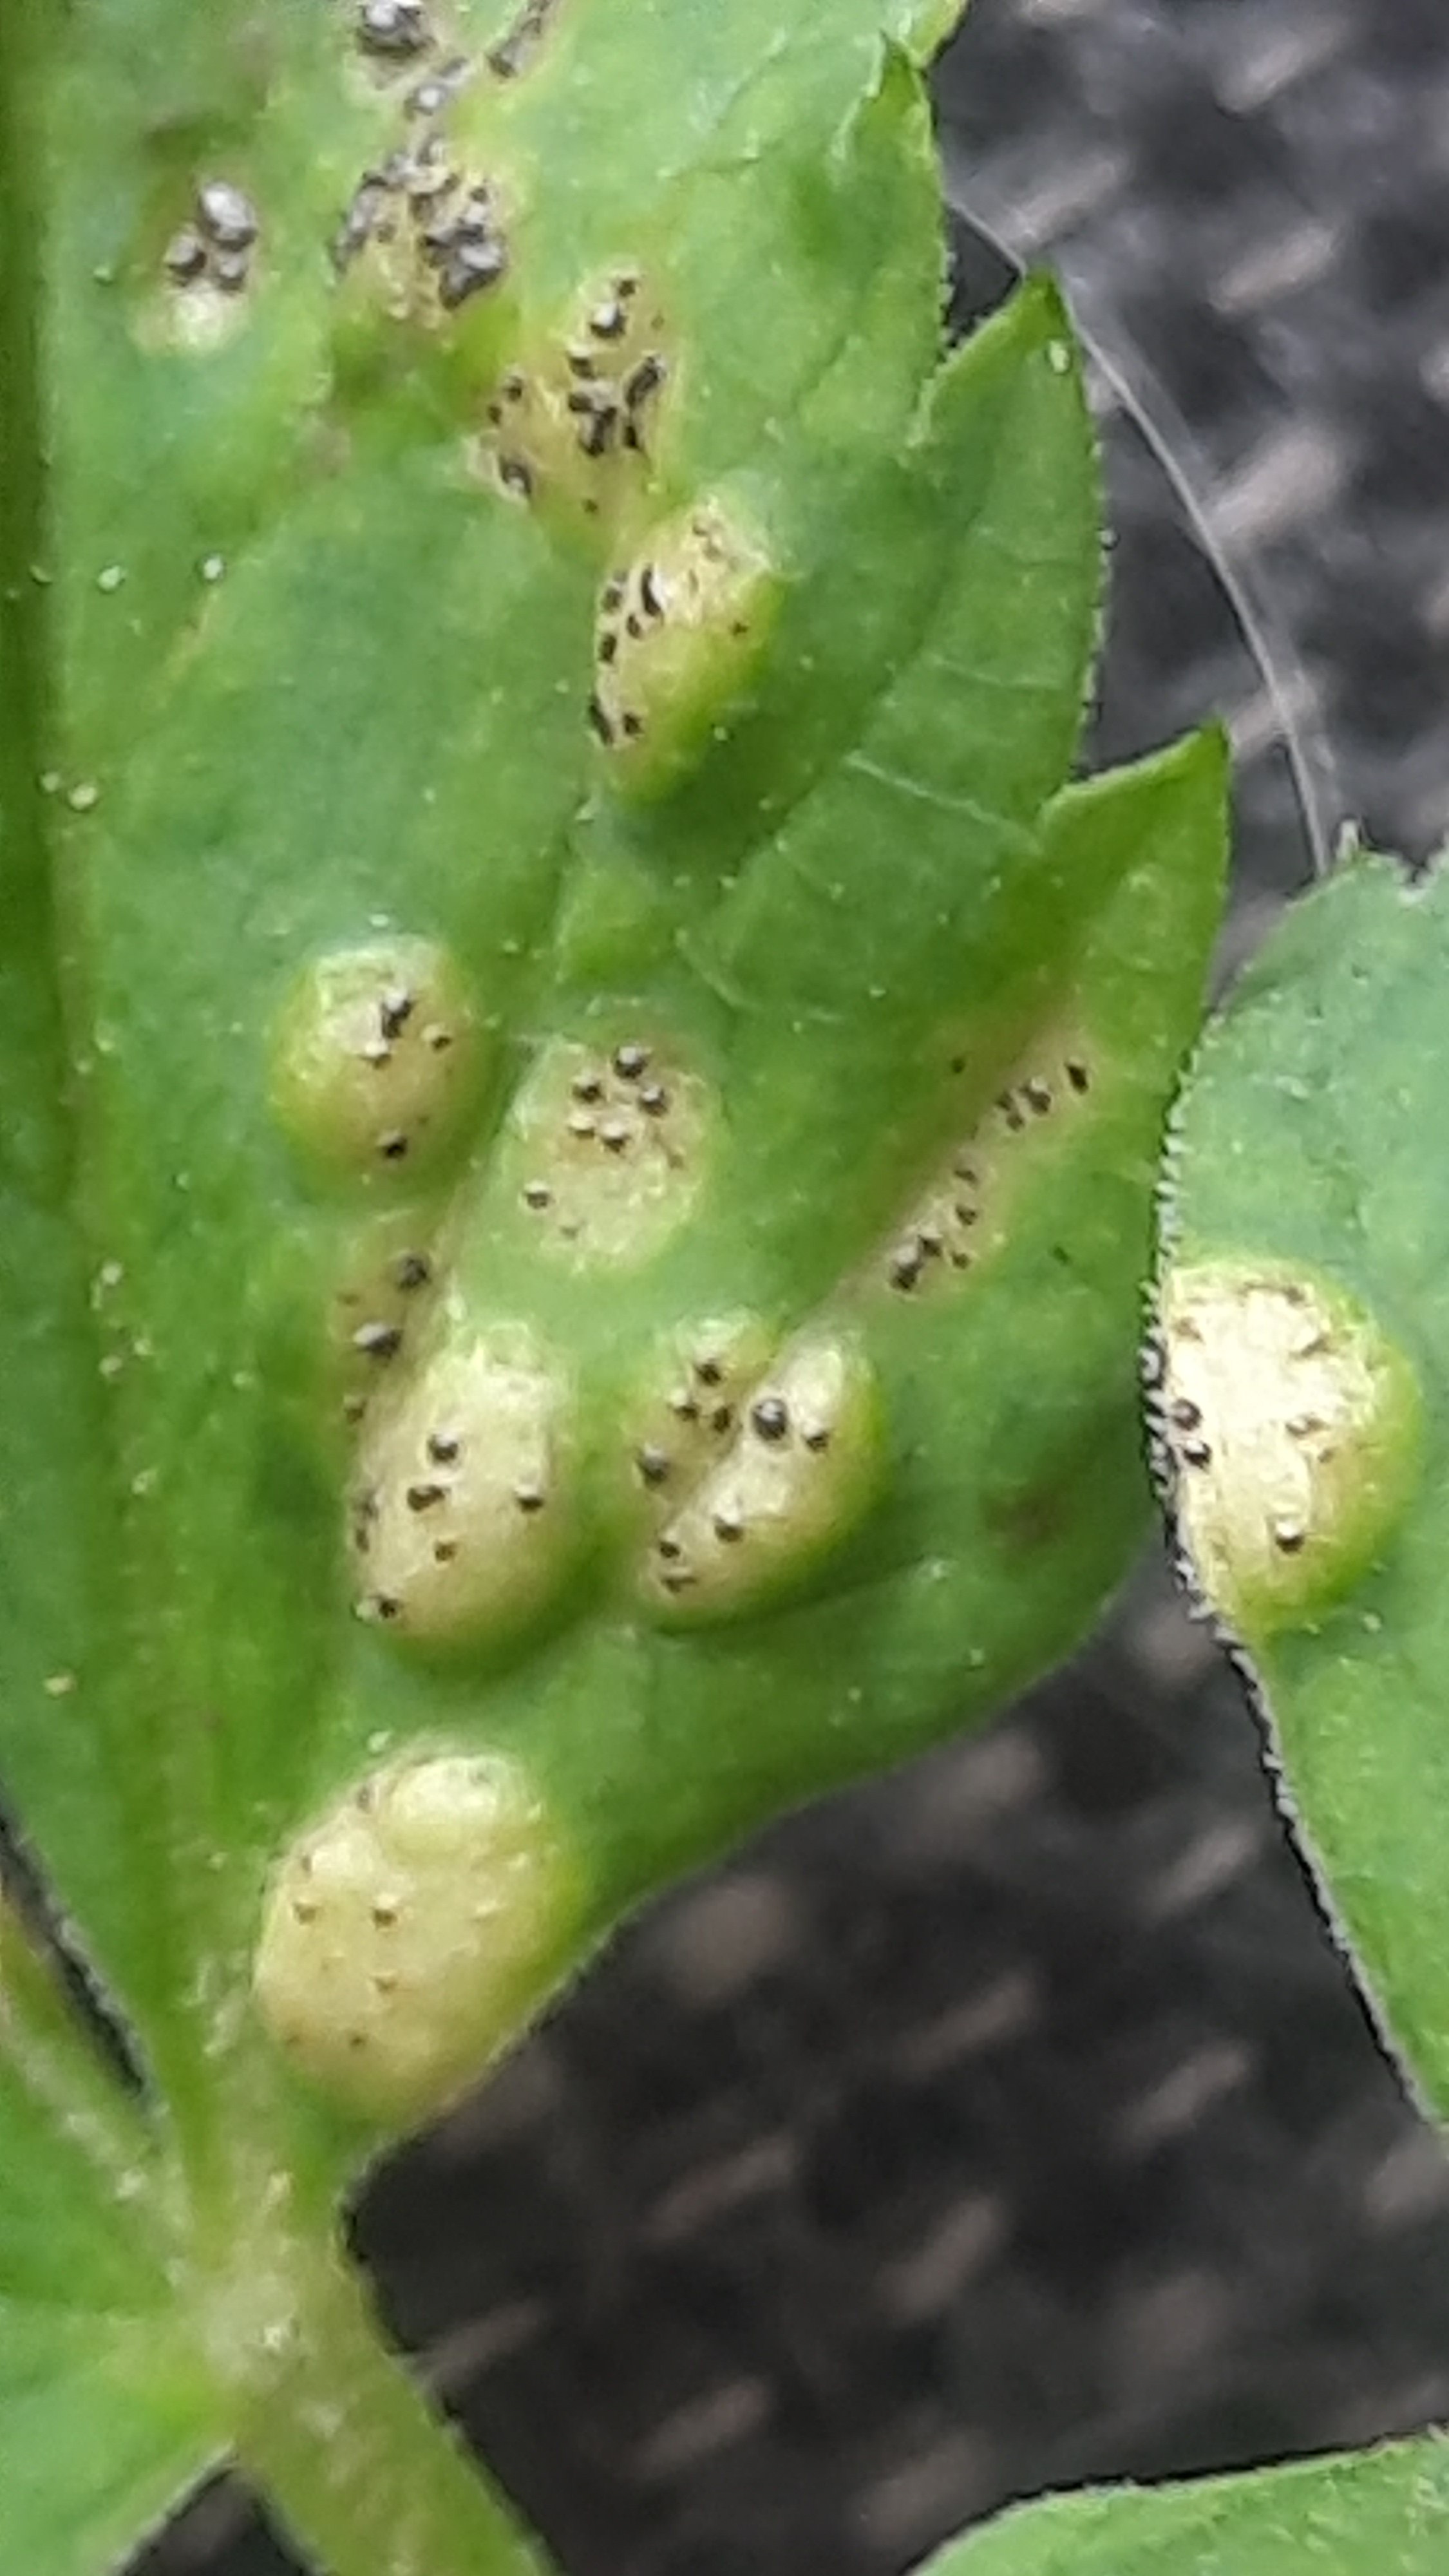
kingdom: Fungi
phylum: Basidiomycota
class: Pucciniomycetes
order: Pucciniales
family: Pucciniaceae
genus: Puccinia
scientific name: Puccinia
